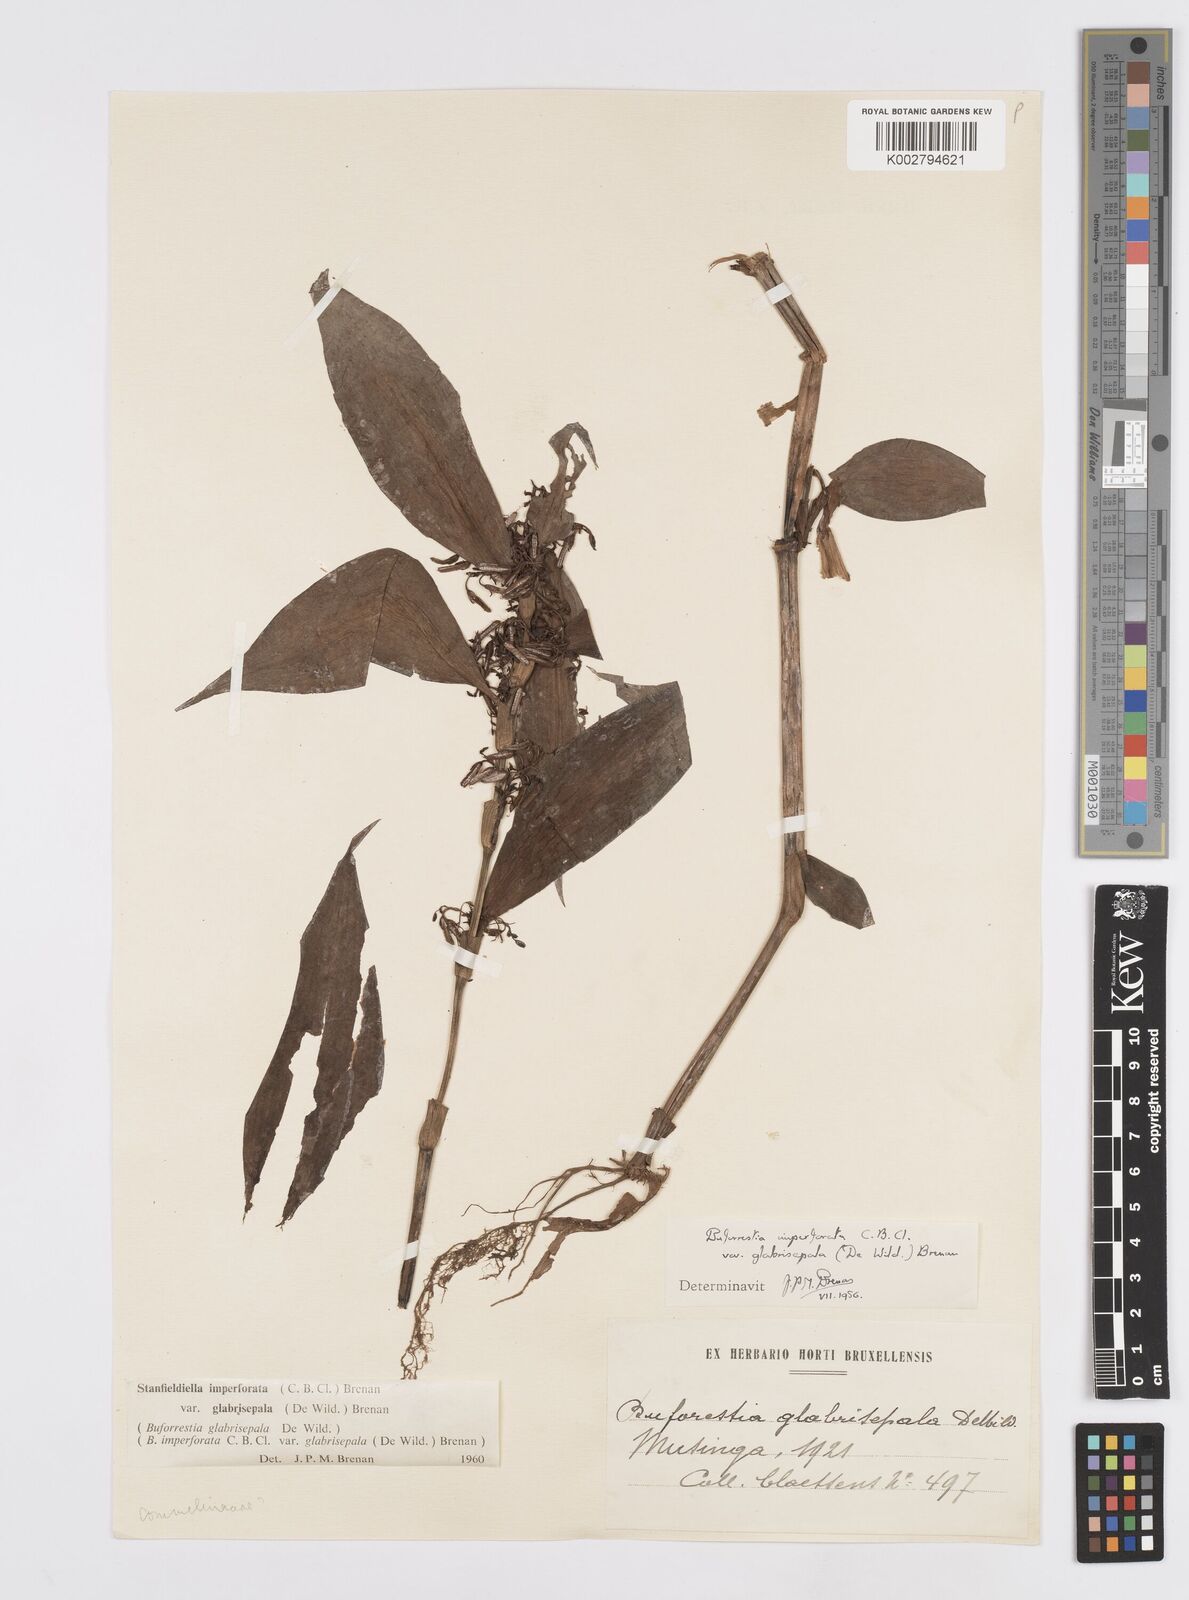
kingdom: Plantae
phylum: Tracheophyta
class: Liliopsida
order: Commelinales
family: Commelinaceae
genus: Stanfieldiella
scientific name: Stanfieldiella imperforata
